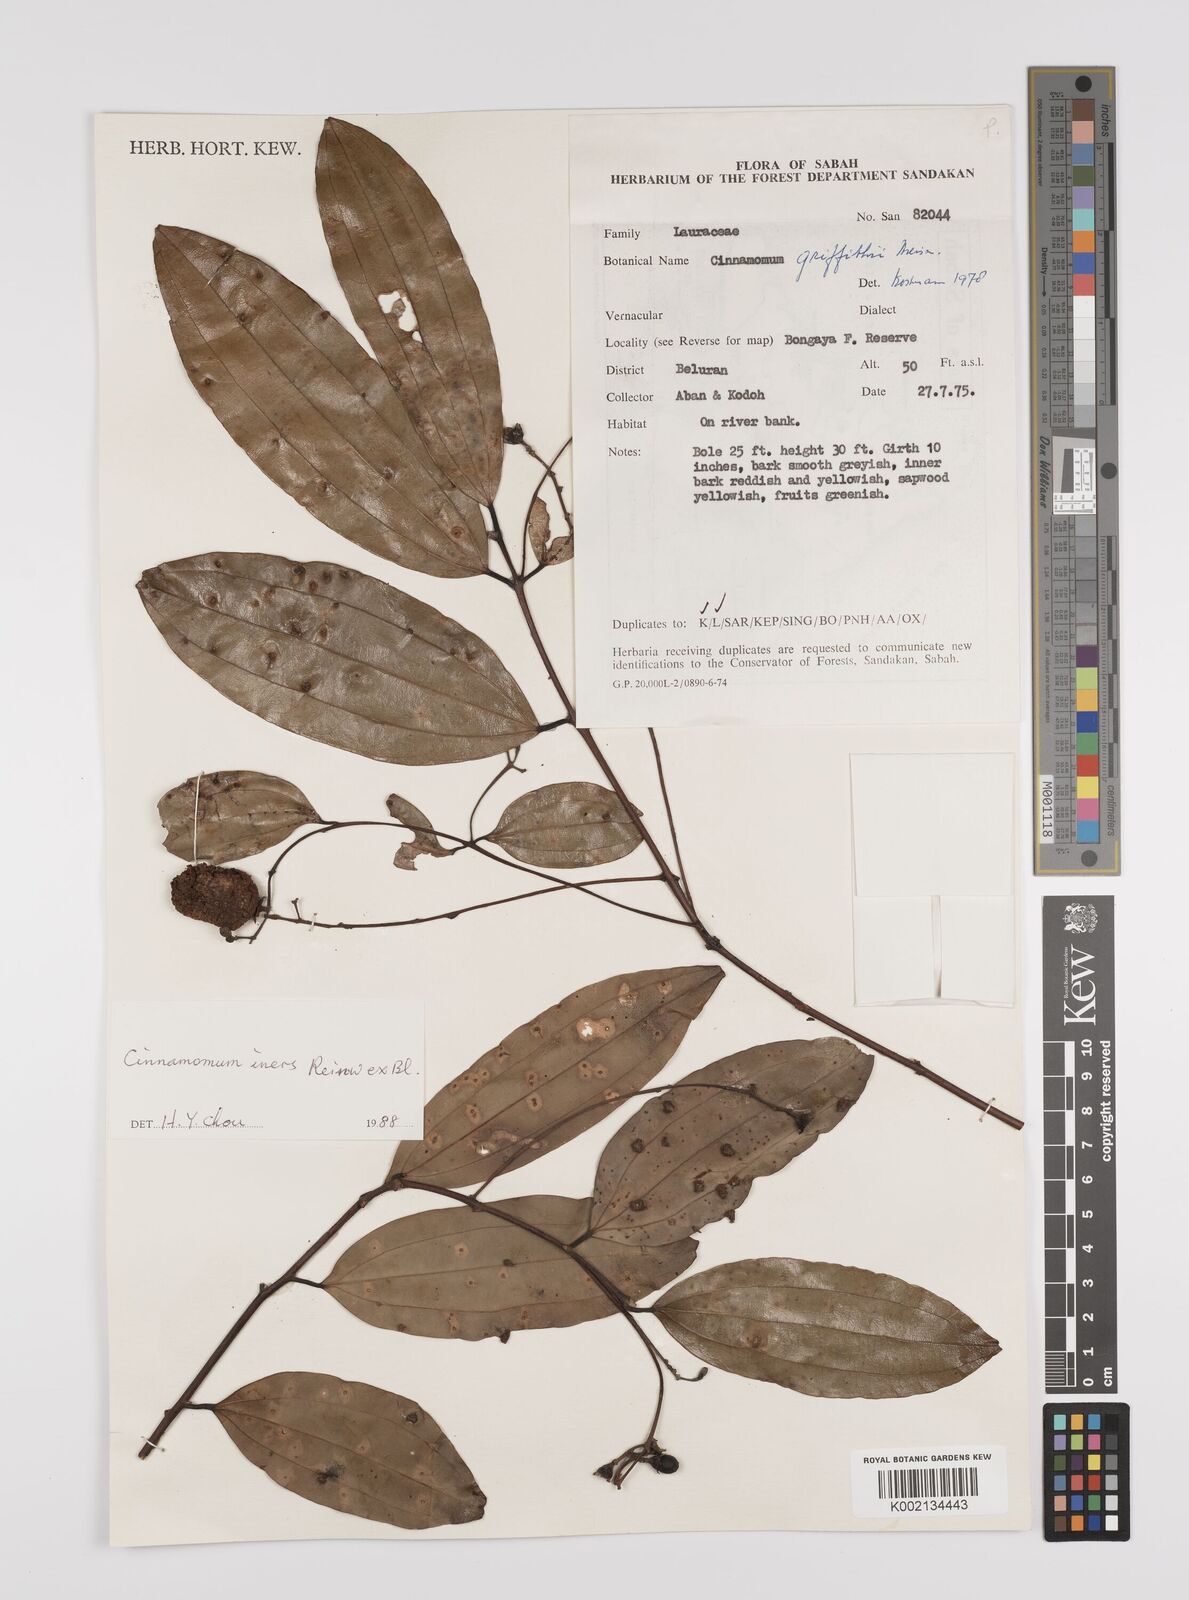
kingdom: Plantae
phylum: Tracheophyta
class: Magnoliopsida
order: Laurales
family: Lauraceae
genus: Cinnamomum
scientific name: Cinnamomum iners
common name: Wild cinnamon
